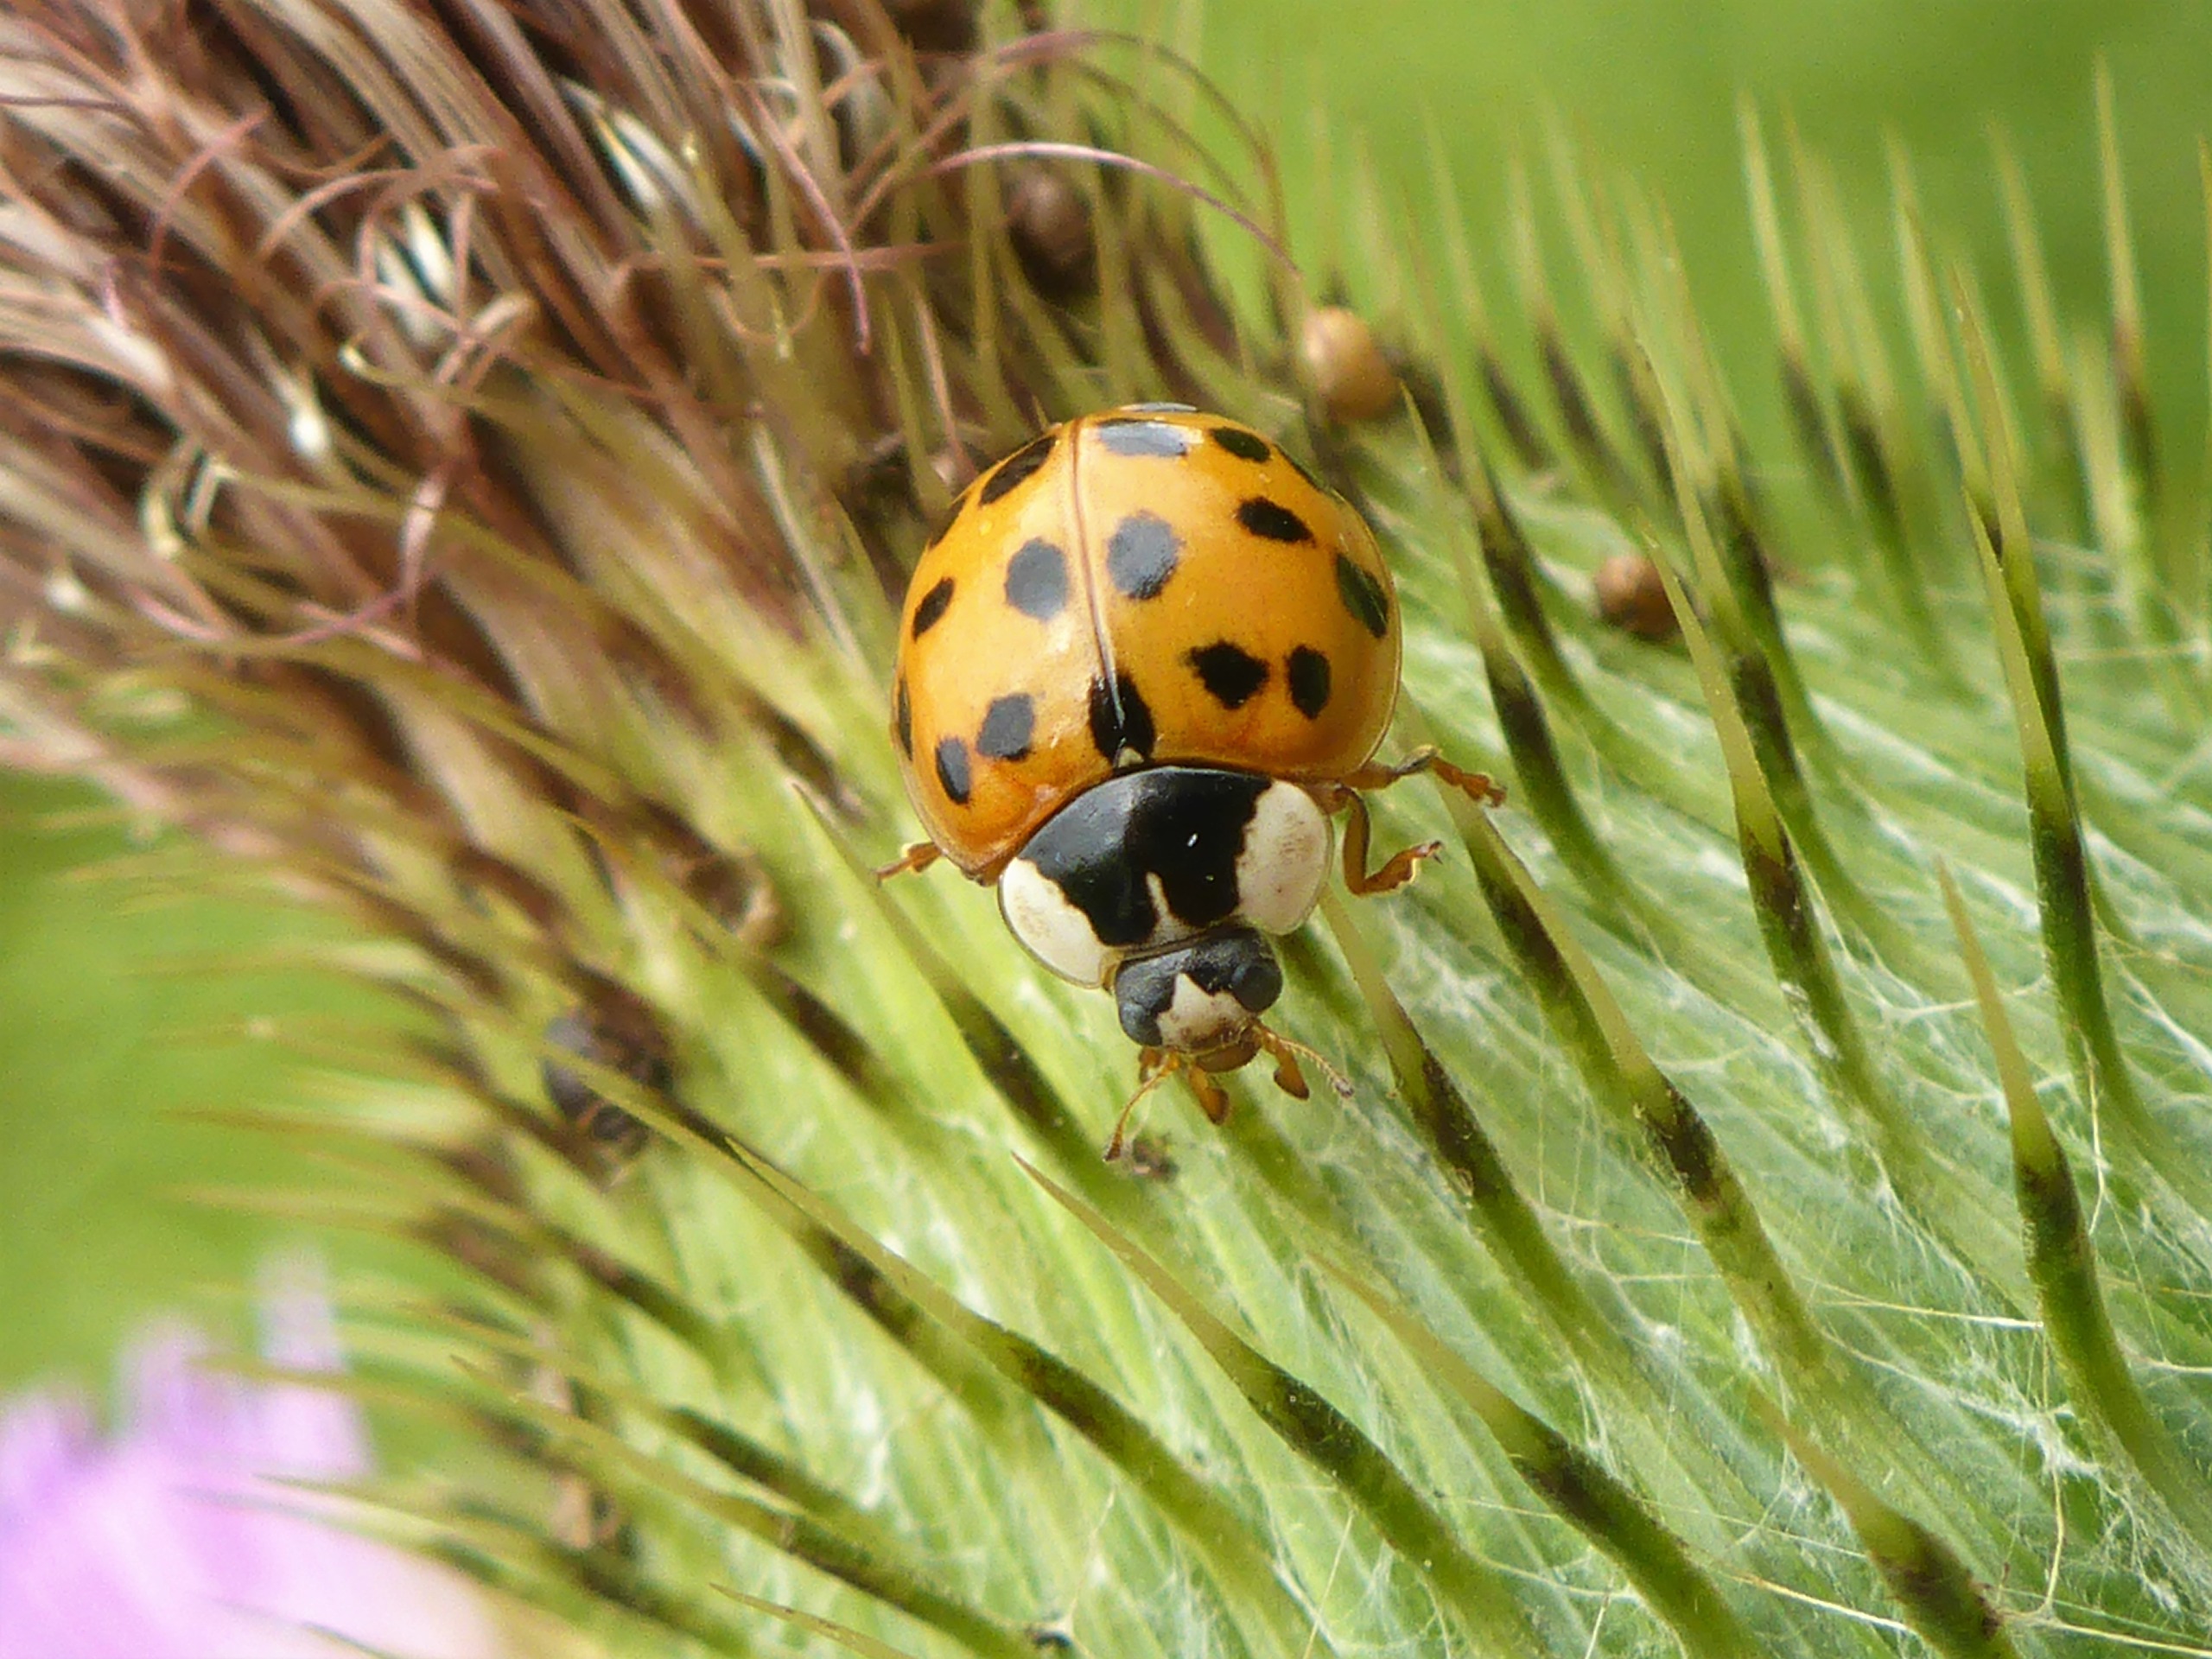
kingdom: Animalia
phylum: Arthropoda
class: Insecta
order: Coleoptera
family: Coccinellidae
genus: Harmonia
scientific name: Harmonia axyridis
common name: Harlekinmariehøne
